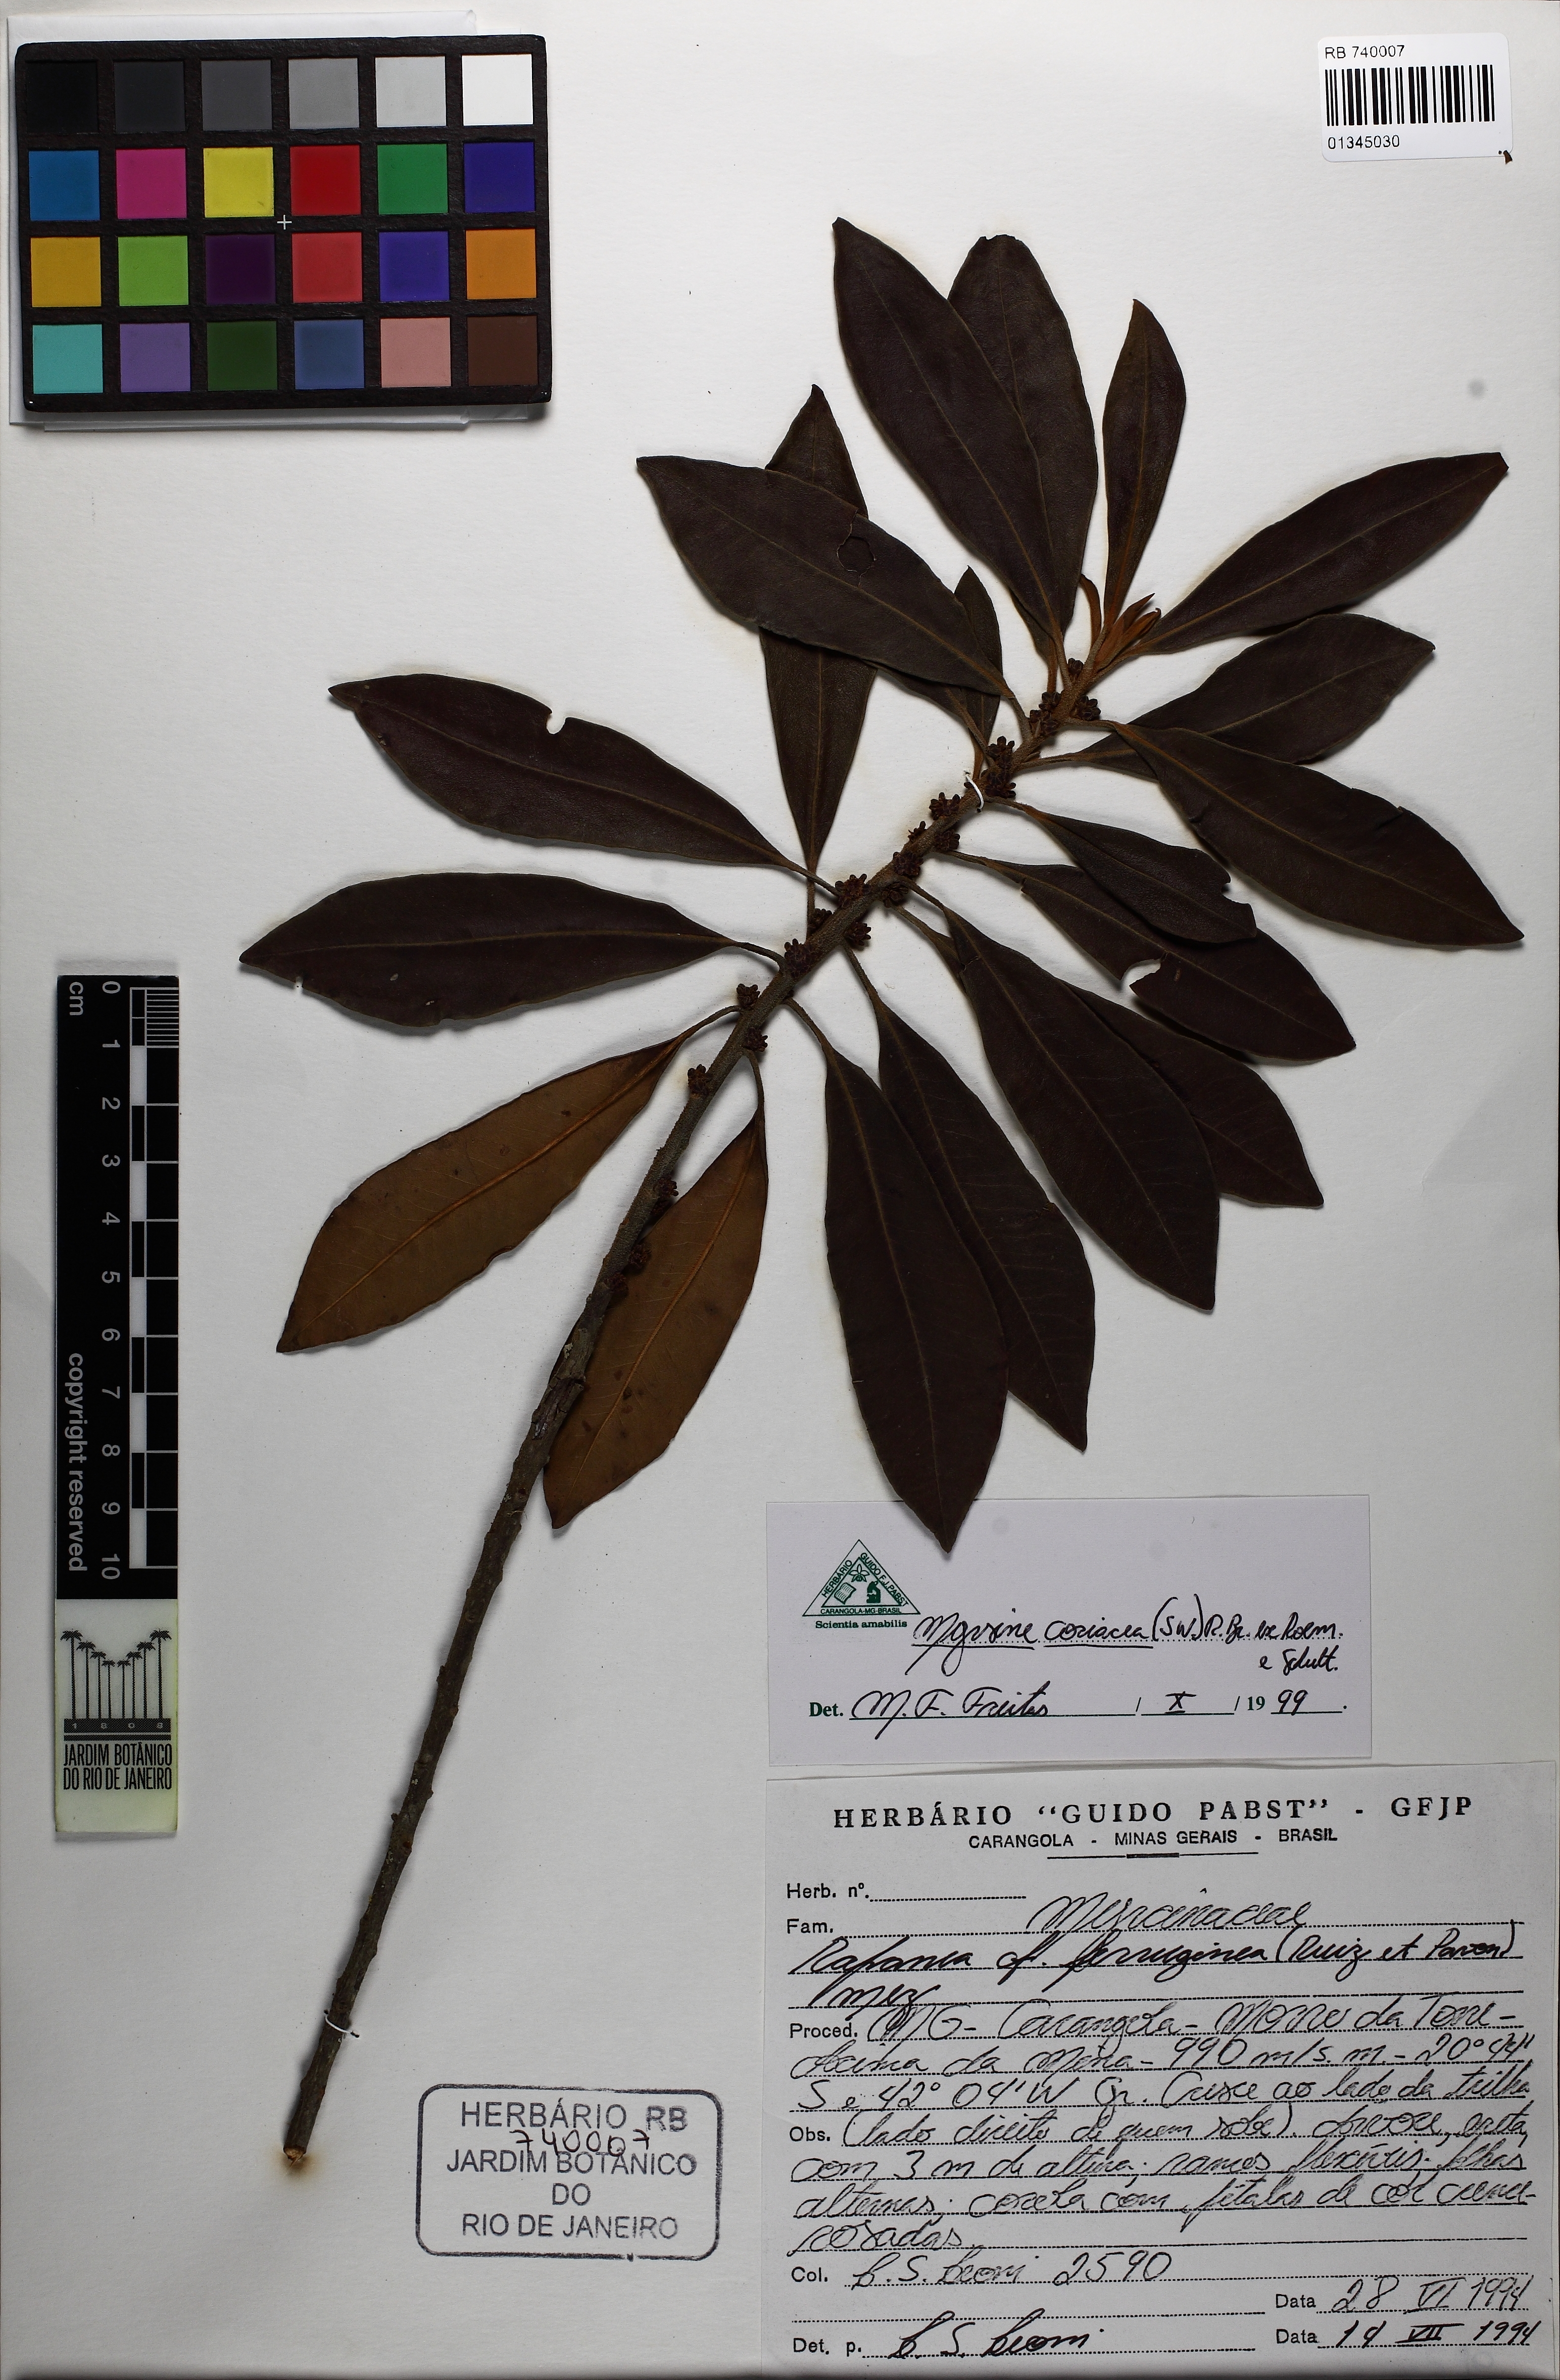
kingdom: Plantae
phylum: Tracheophyta
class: Magnoliopsida
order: Ericales
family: Primulaceae
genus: Myrsine
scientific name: Myrsine coriacea
